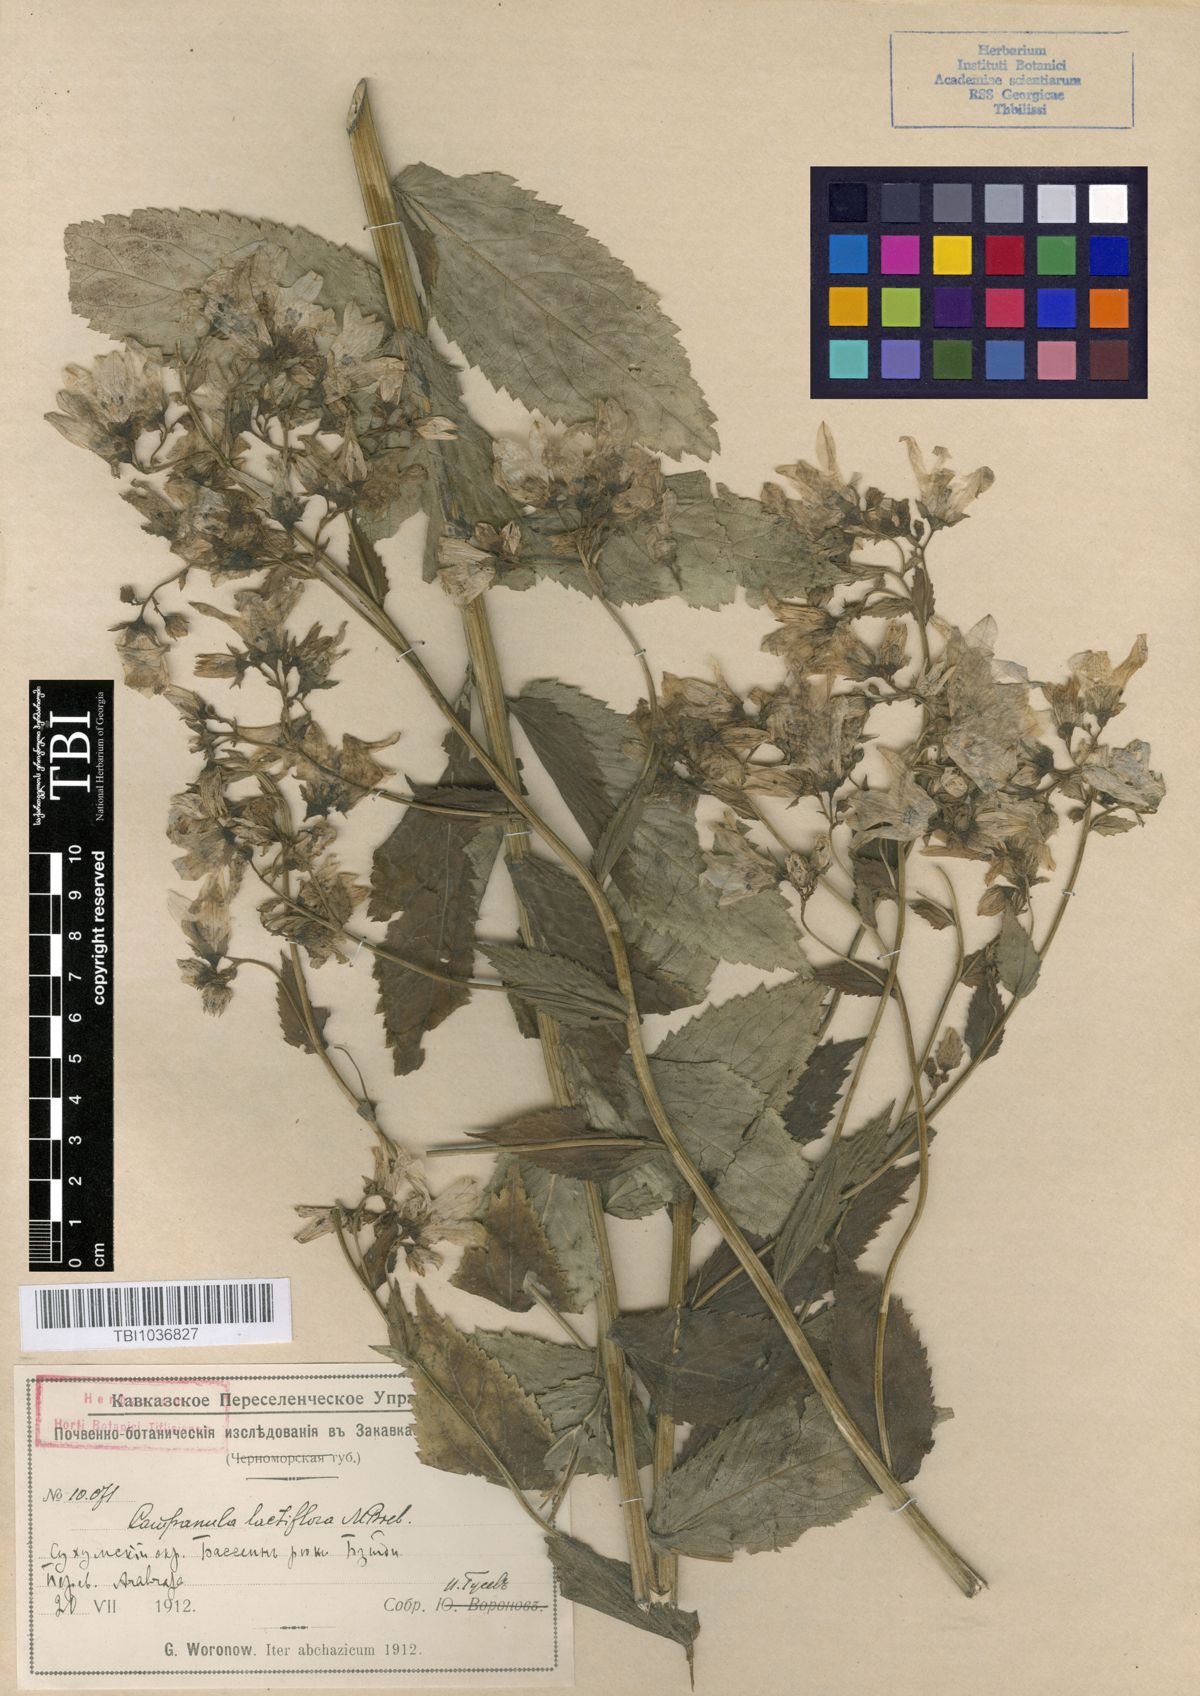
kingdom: Plantae
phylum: Tracheophyta
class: Magnoliopsida
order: Asterales
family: Campanulaceae
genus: Campanula
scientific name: Campanula lactiflora
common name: Milky bellflower
